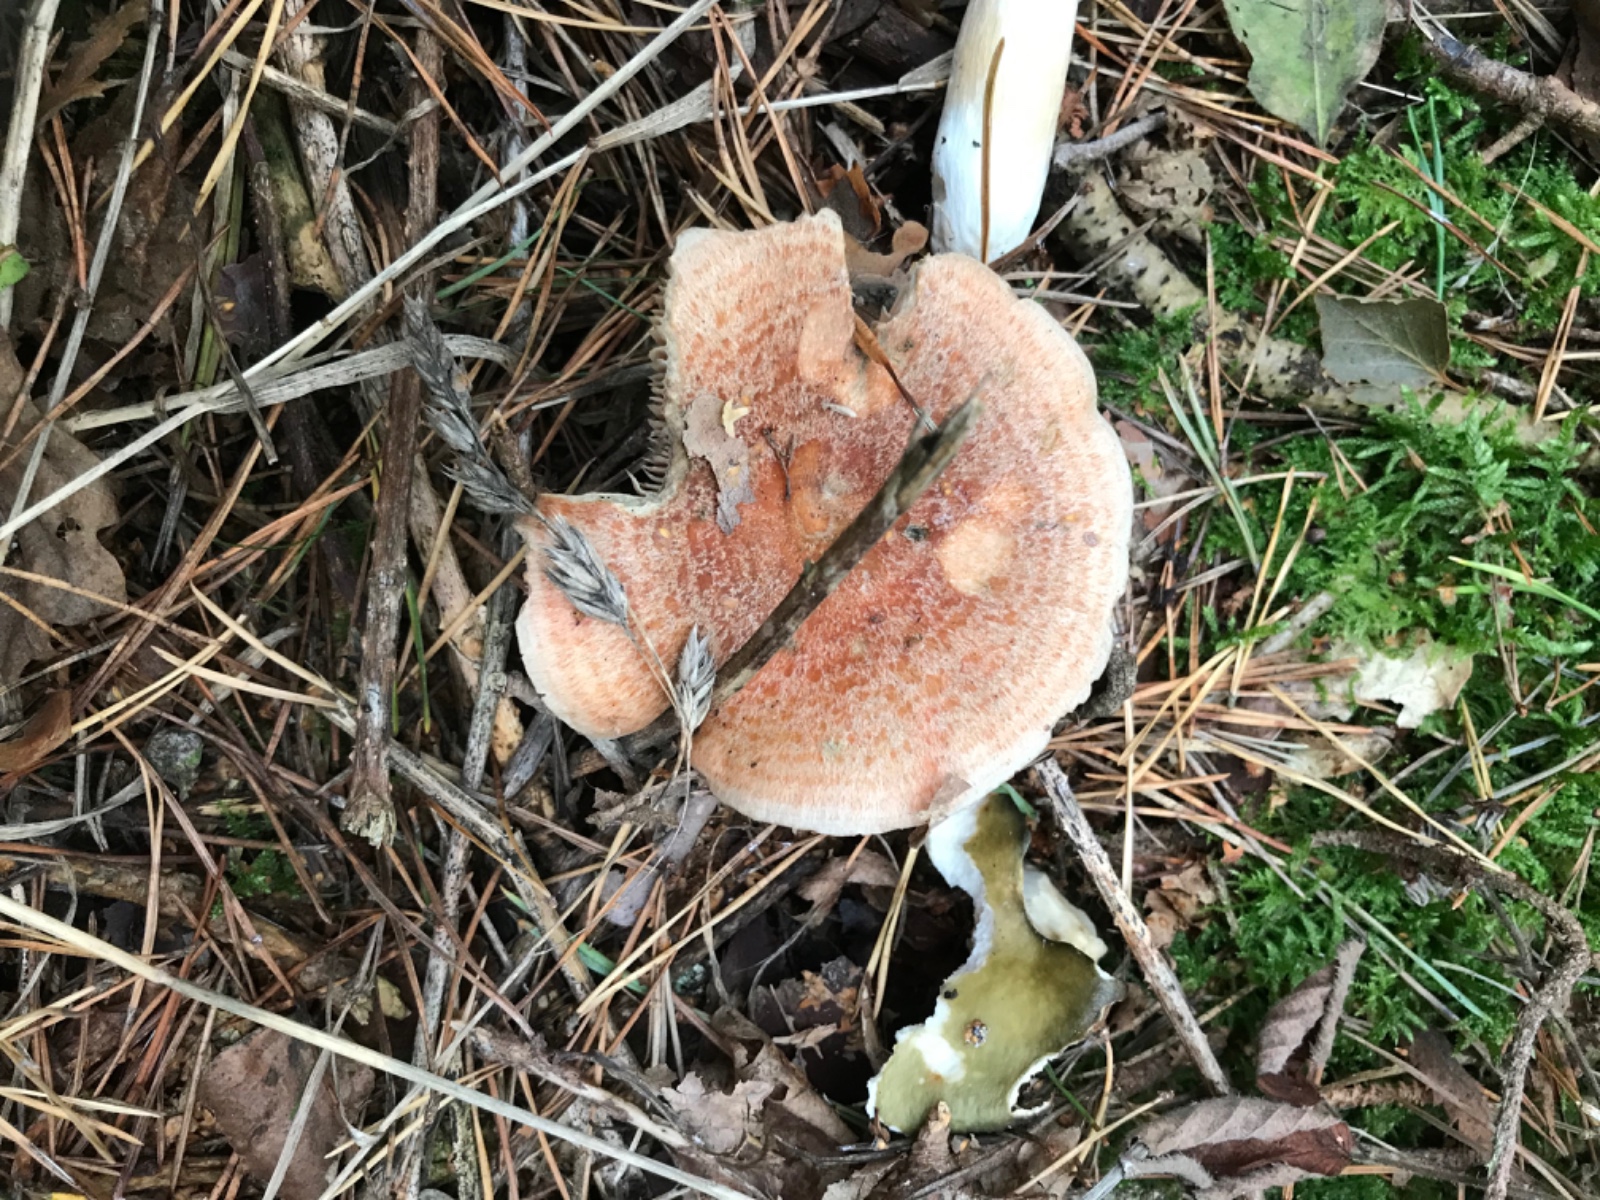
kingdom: Fungi
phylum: Basidiomycota
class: Agaricomycetes
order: Russulales
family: Russulaceae
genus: Lactarius
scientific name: Lactarius quieticolor
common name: tvefarvet mælkehat
